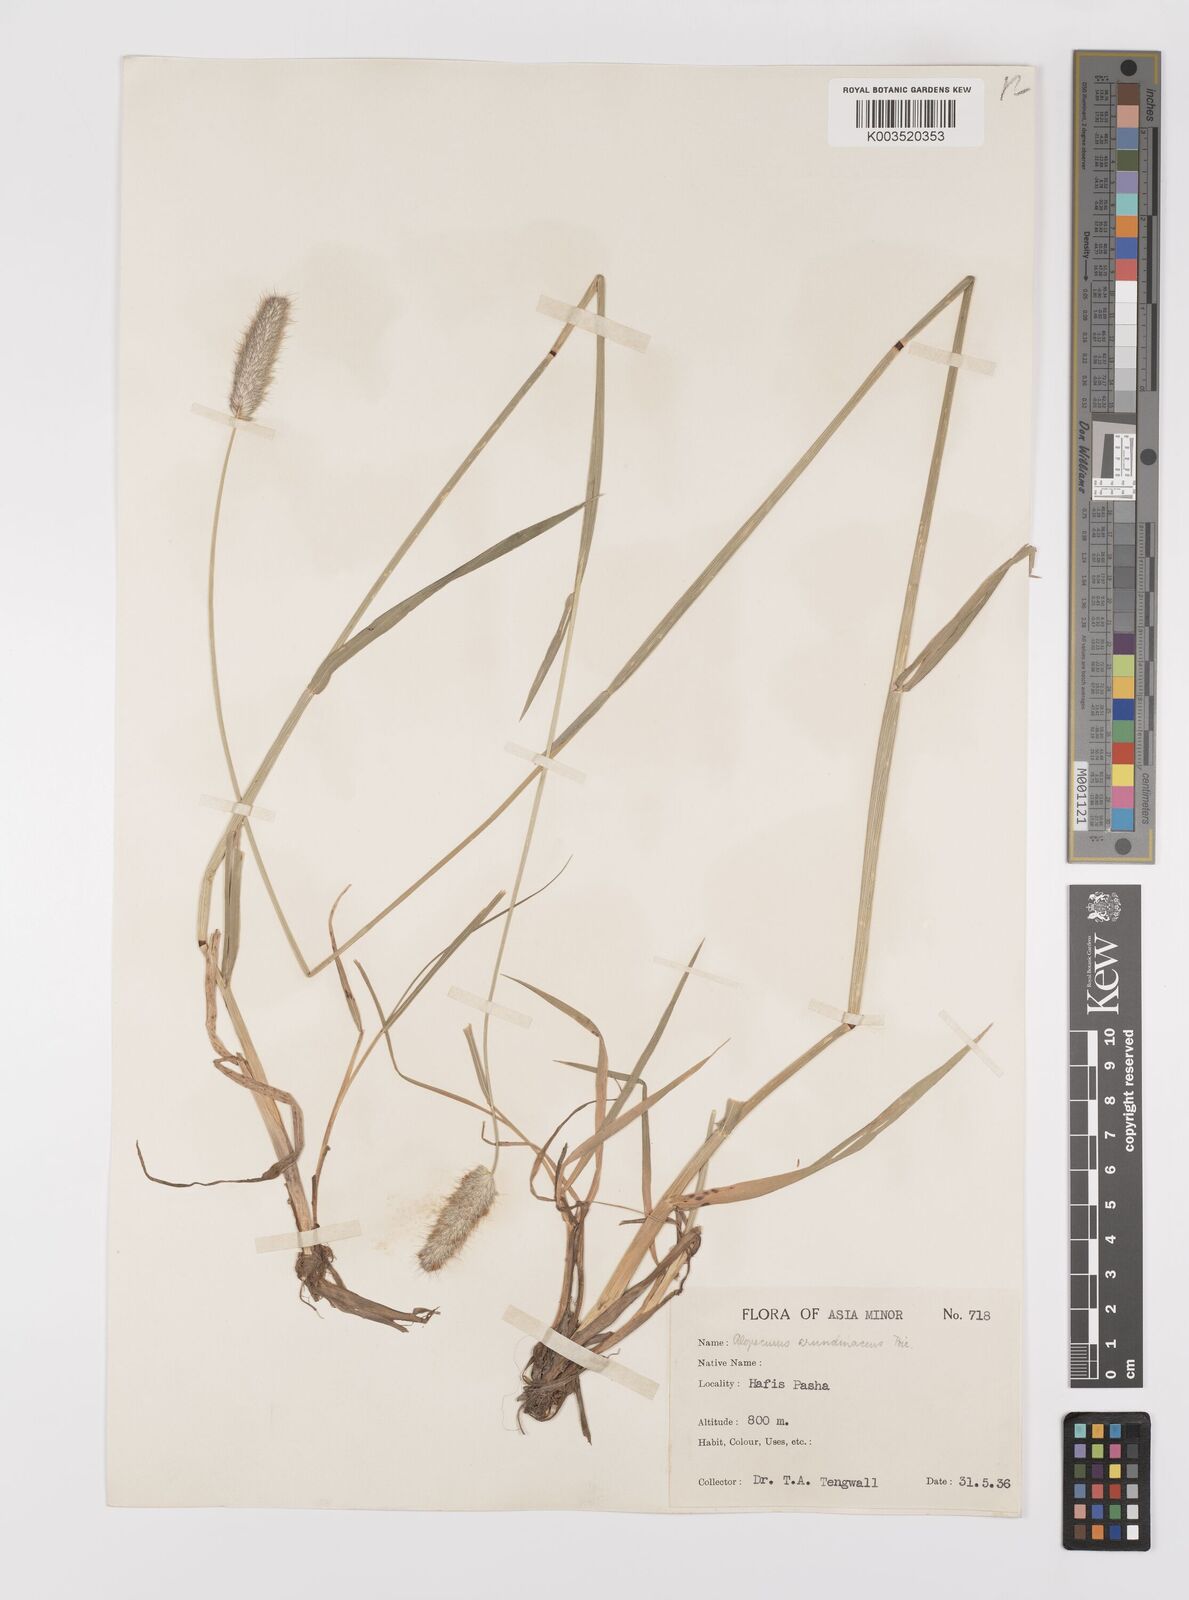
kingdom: Plantae
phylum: Tracheophyta
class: Liliopsida
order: Poales
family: Poaceae
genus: Alopecurus
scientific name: Alopecurus arundinaceus
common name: Creeping meadow foxtail
